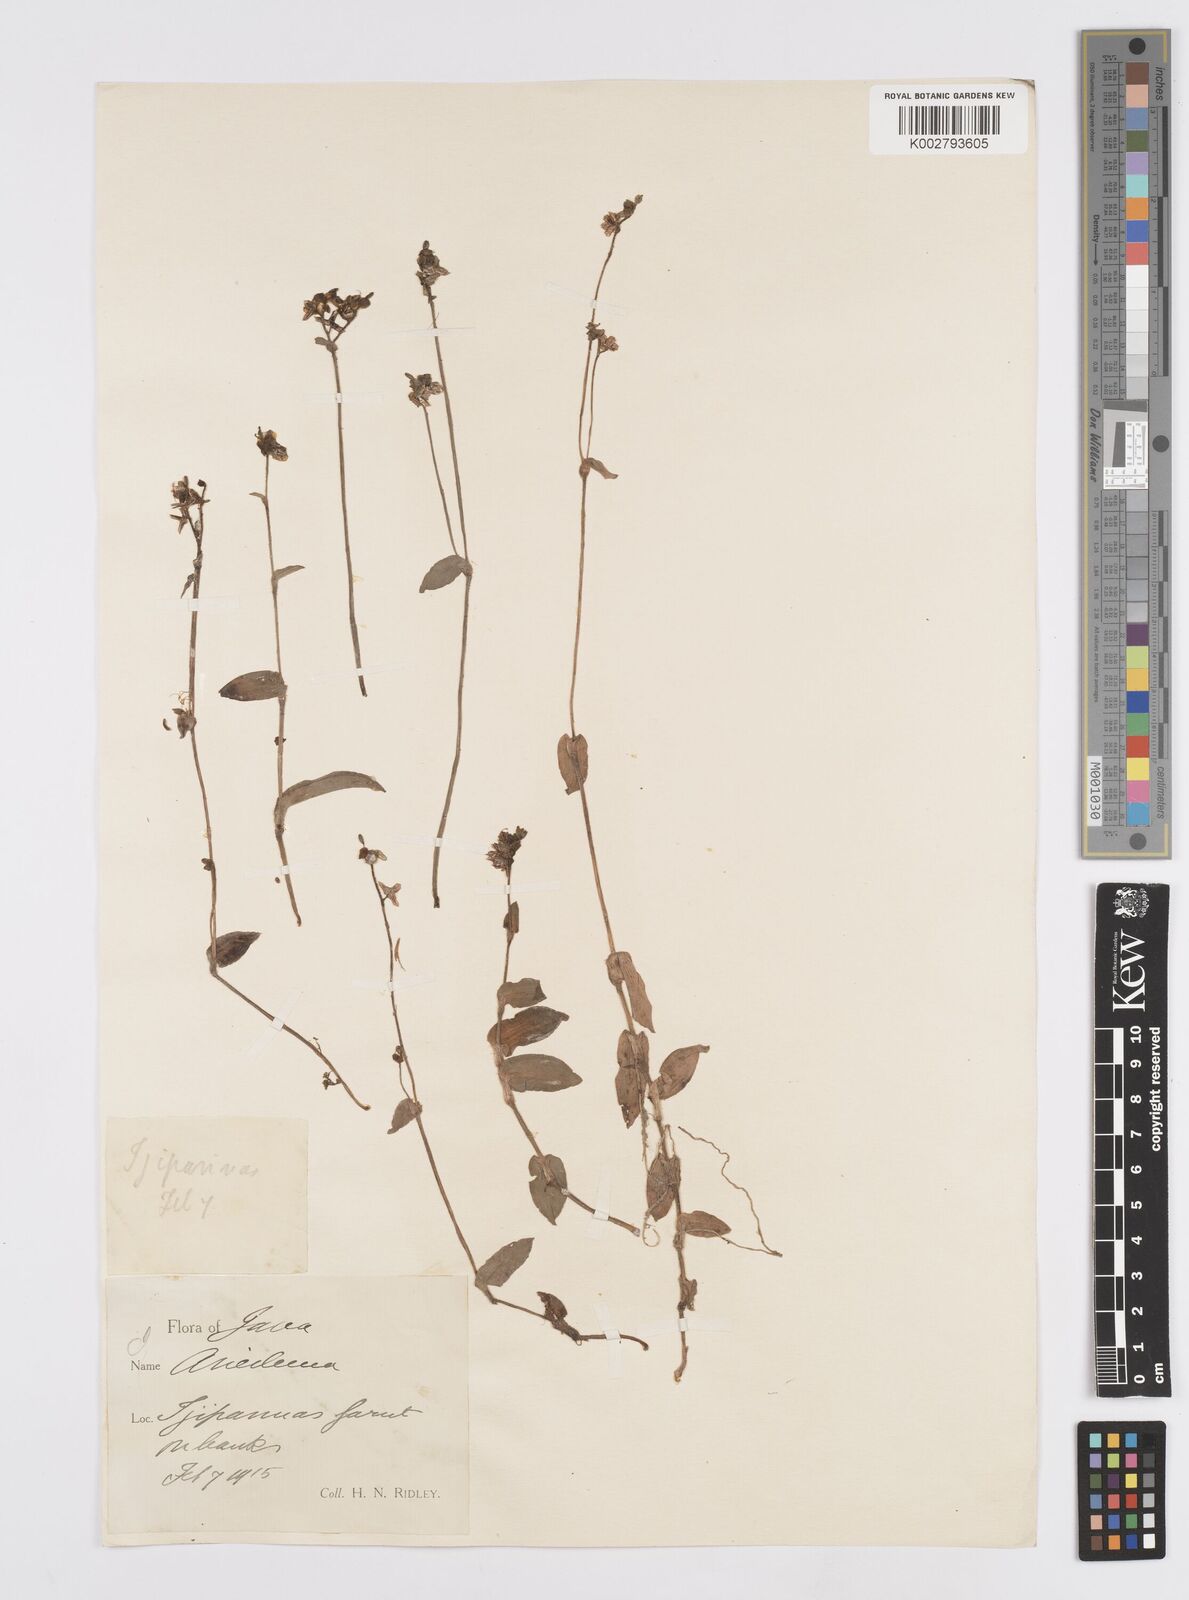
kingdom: Plantae
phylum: Tracheophyta
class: Liliopsida
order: Commelinales
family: Commelinaceae
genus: Murdannia
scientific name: Murdannia nudiflora
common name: Nakedstem dewflower
